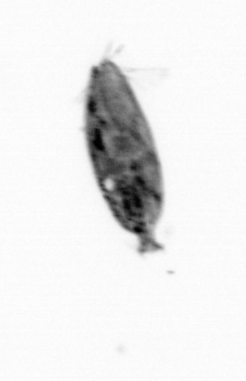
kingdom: Animalia
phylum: Arthropoda
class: Maxillopoda
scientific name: Maxillopoda
